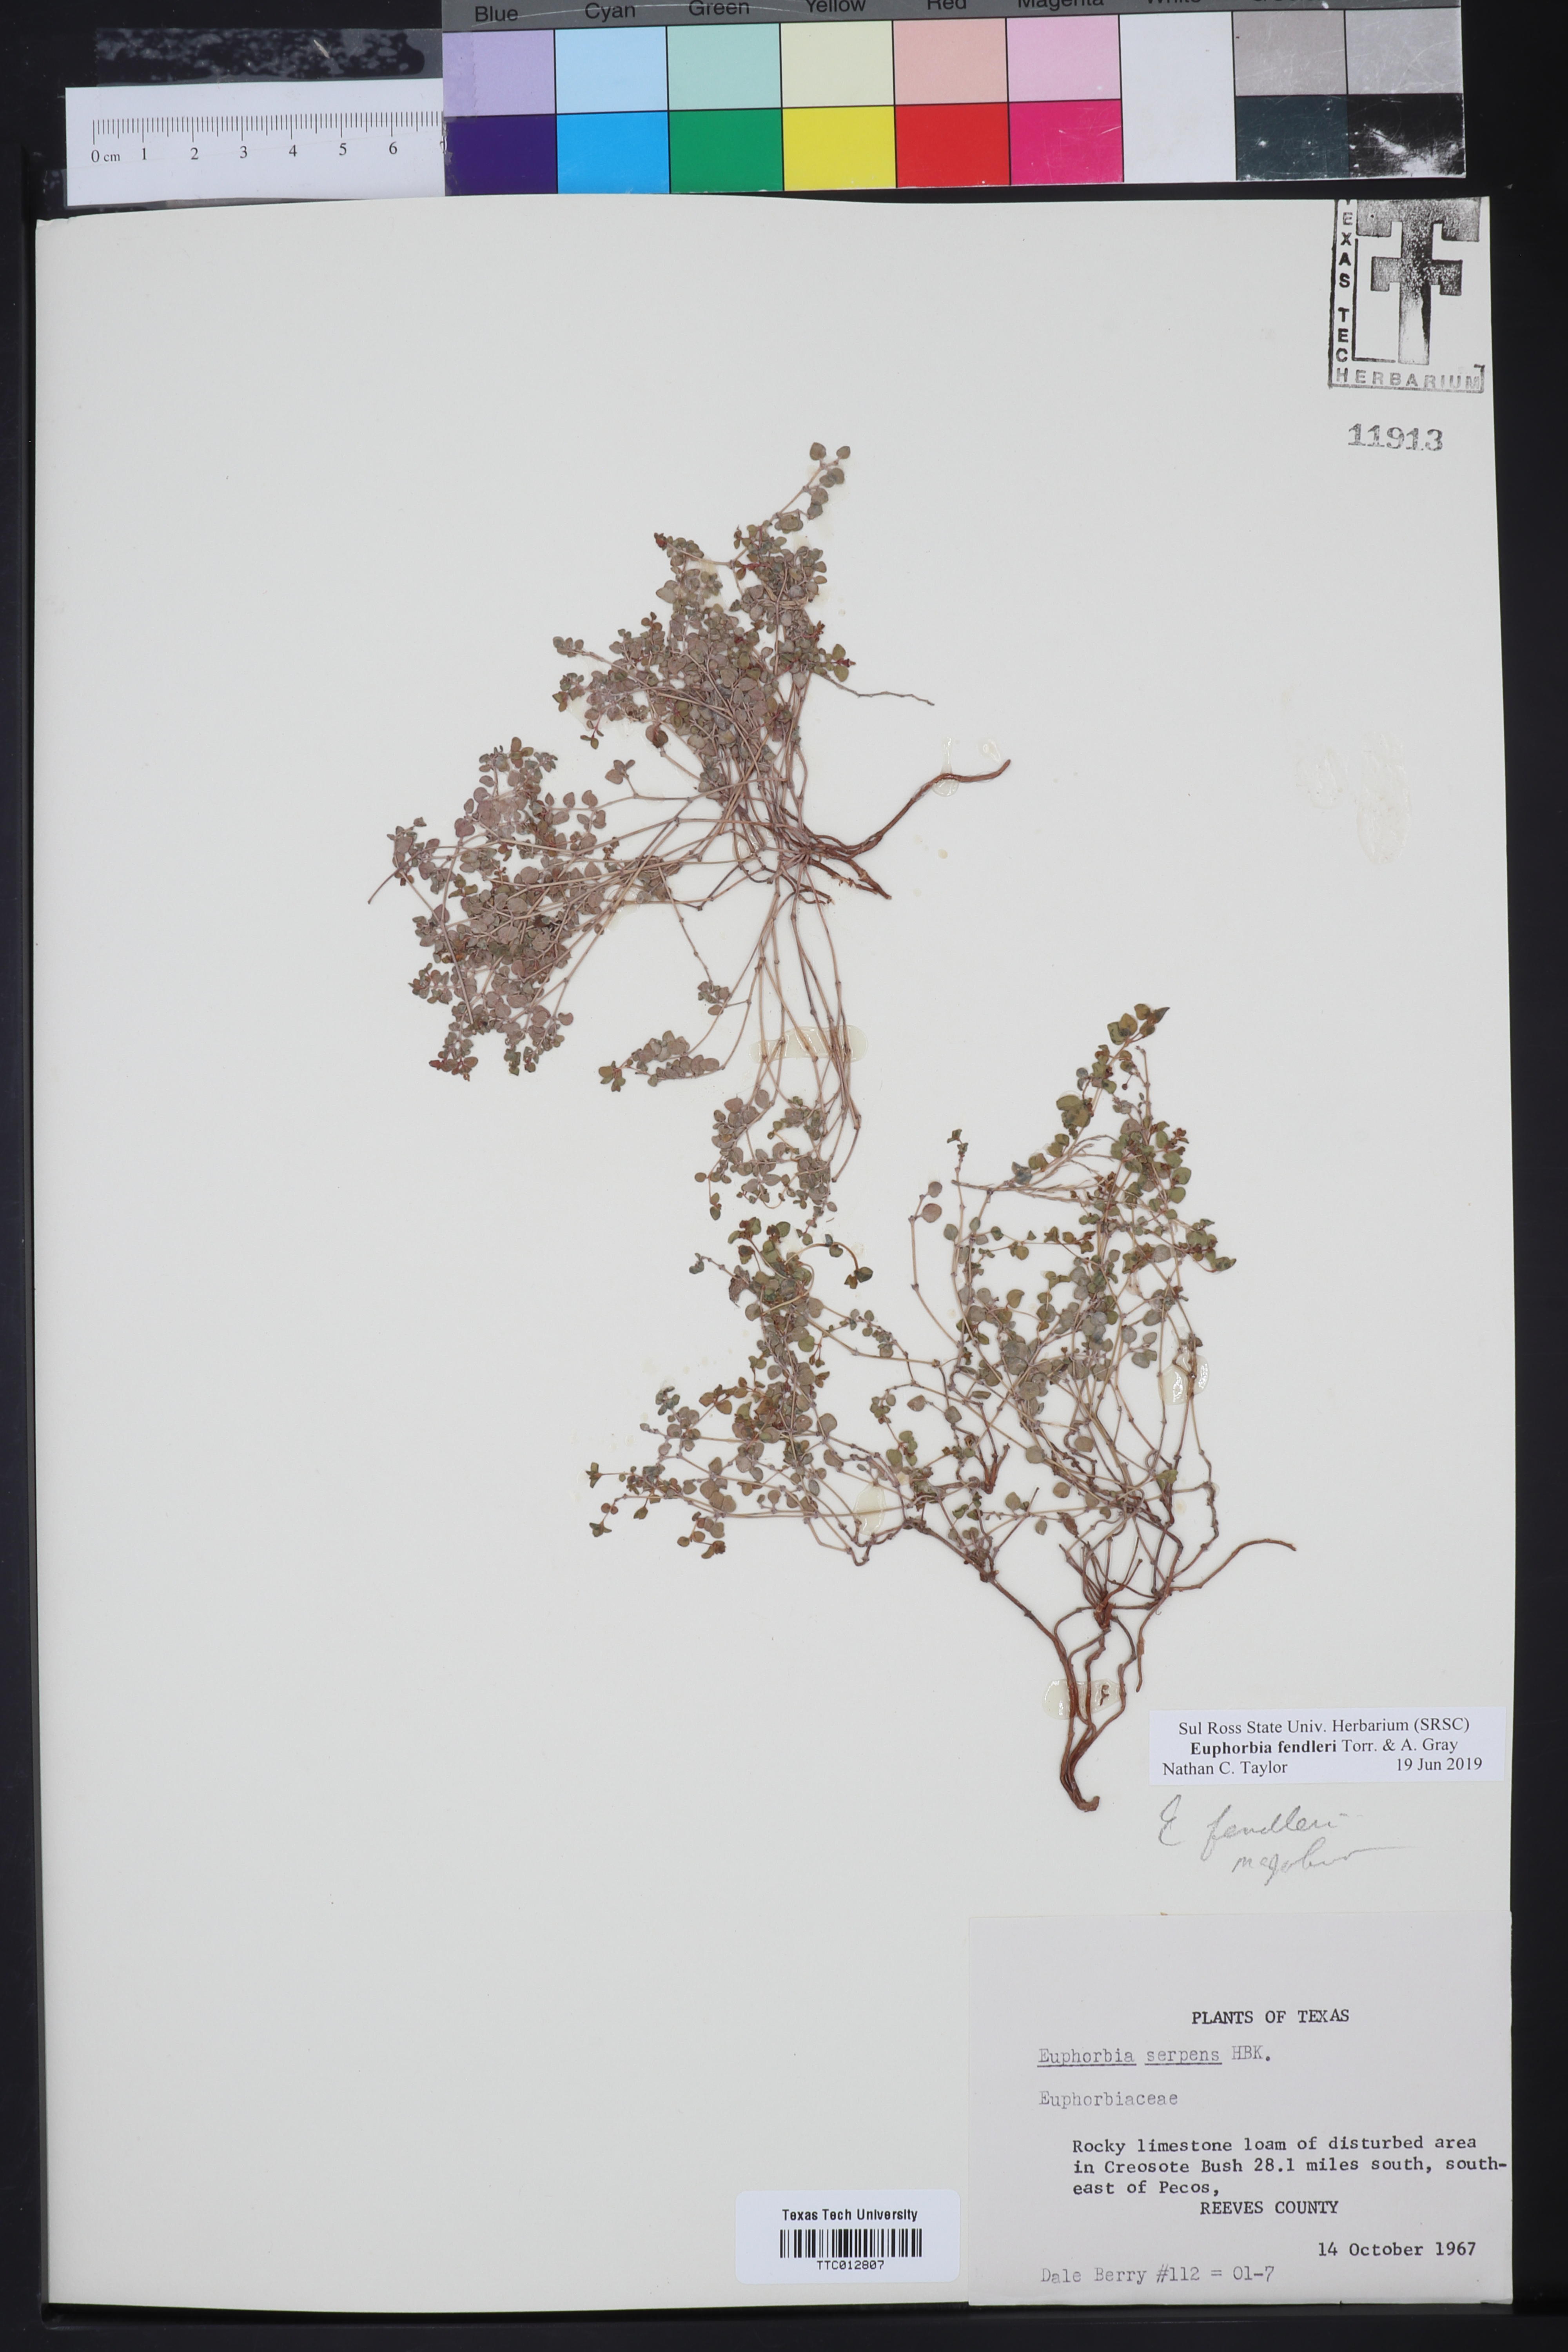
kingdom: Plantae
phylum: Tracheophyta
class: Magnoliopsida
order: Malpighiales
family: Euphorbiaceae
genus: Euphorbia
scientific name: Euphorbia fendleri
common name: Fendler's euphorbia
